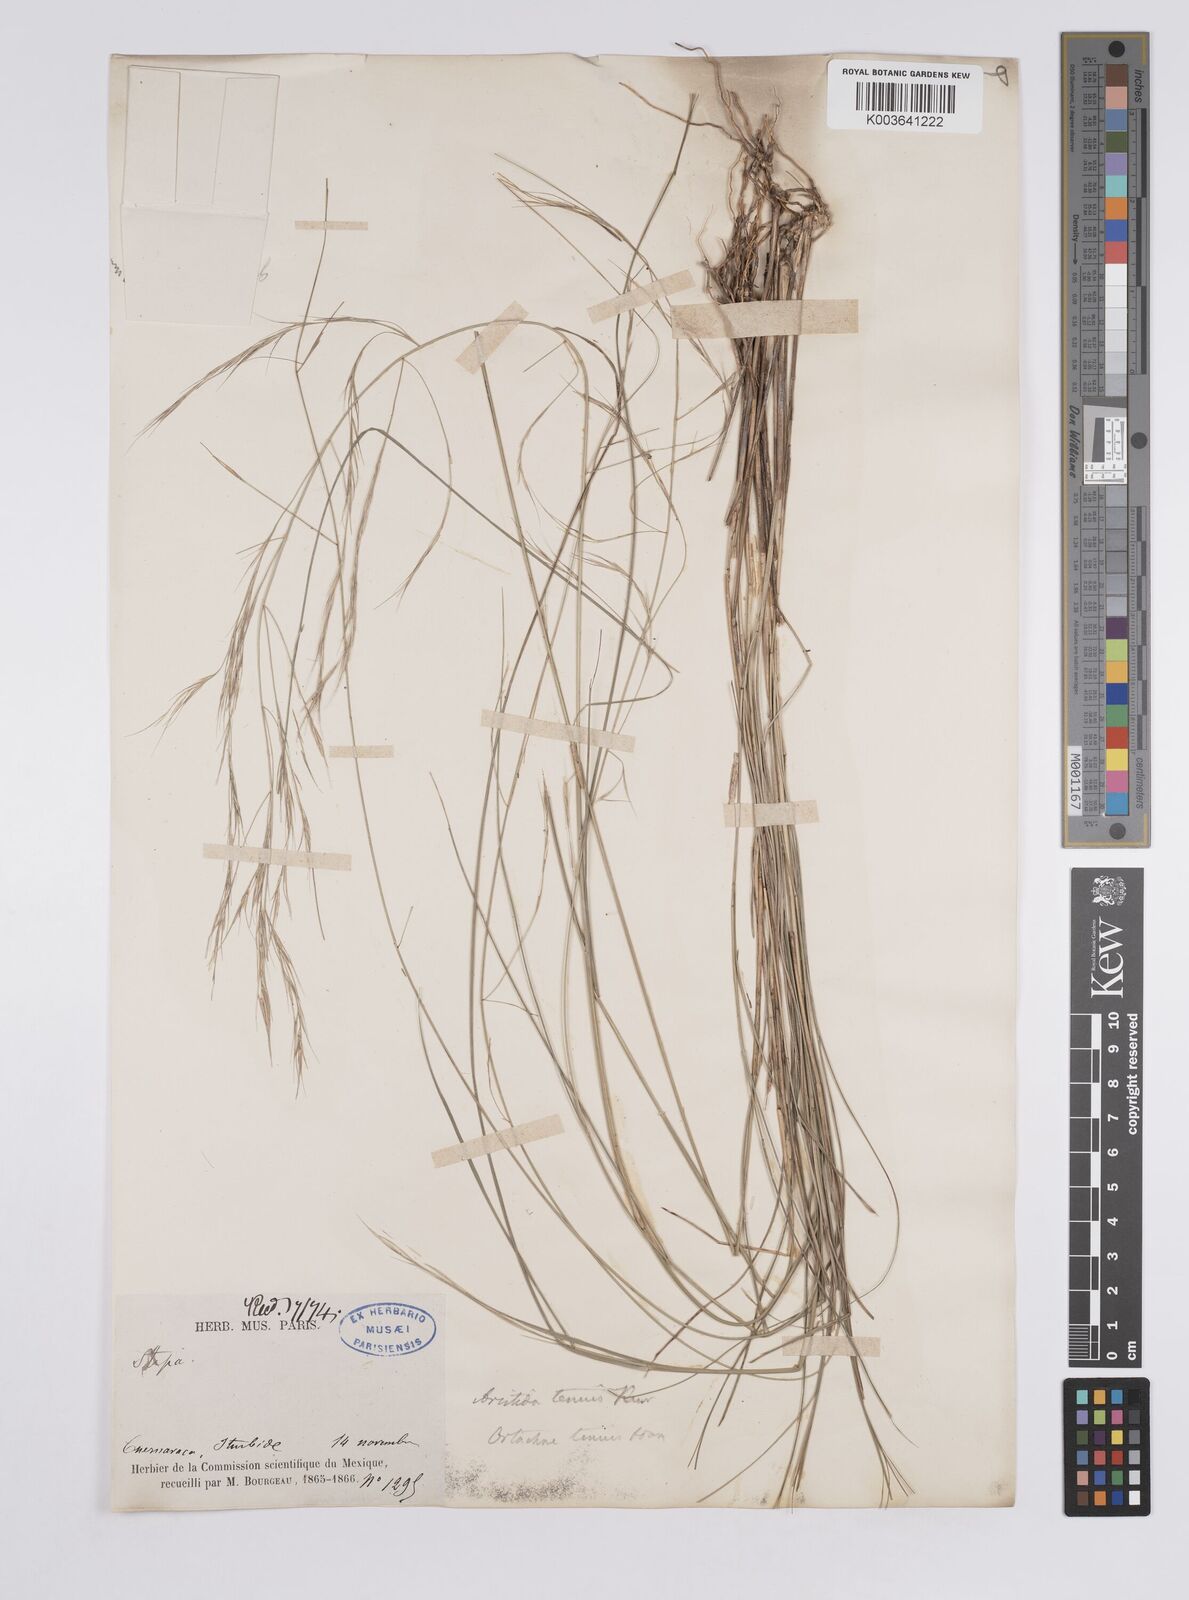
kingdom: Plantae
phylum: Tracheophyta
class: Liliopsida
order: Poales
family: Poaceae
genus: Aristida
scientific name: Aristida
